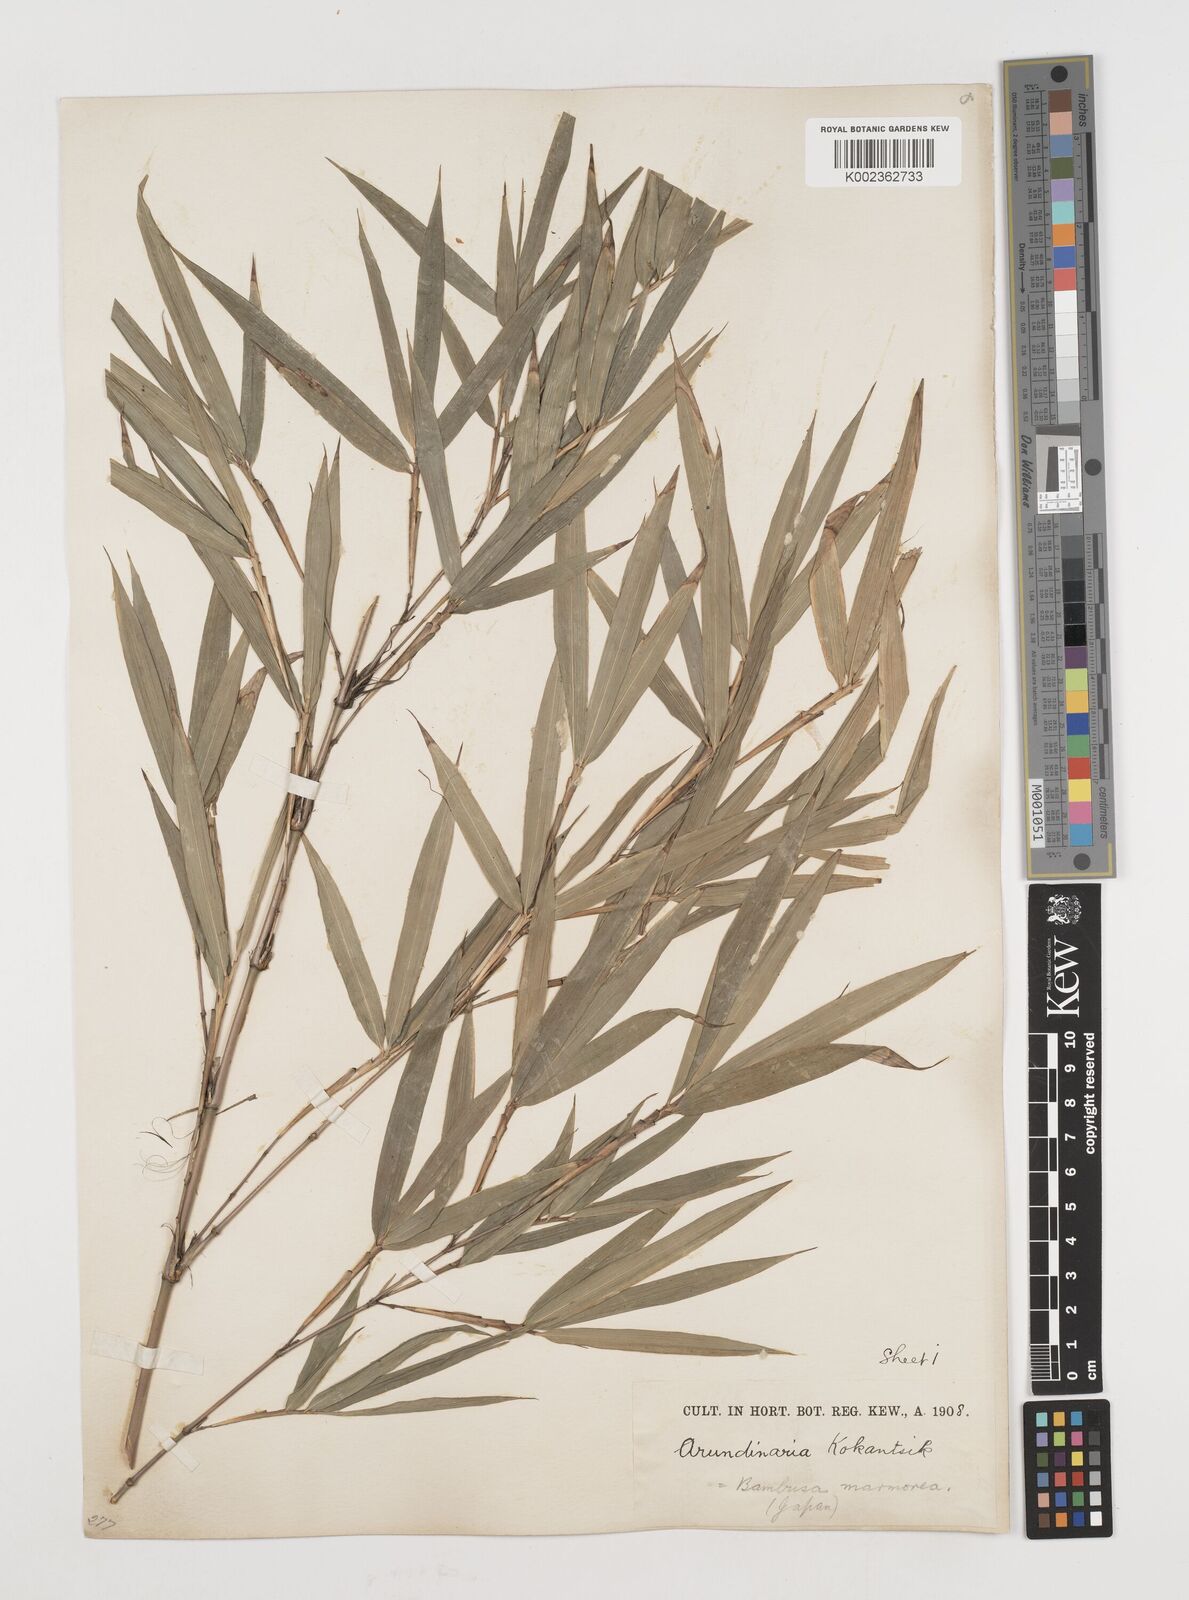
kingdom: Plantae
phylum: Tracheophyta
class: Liliopsida
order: Poales
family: Poaceae
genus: Chimonobambusa
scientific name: Chimonobambusa marmorea
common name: Marbled bamboo
